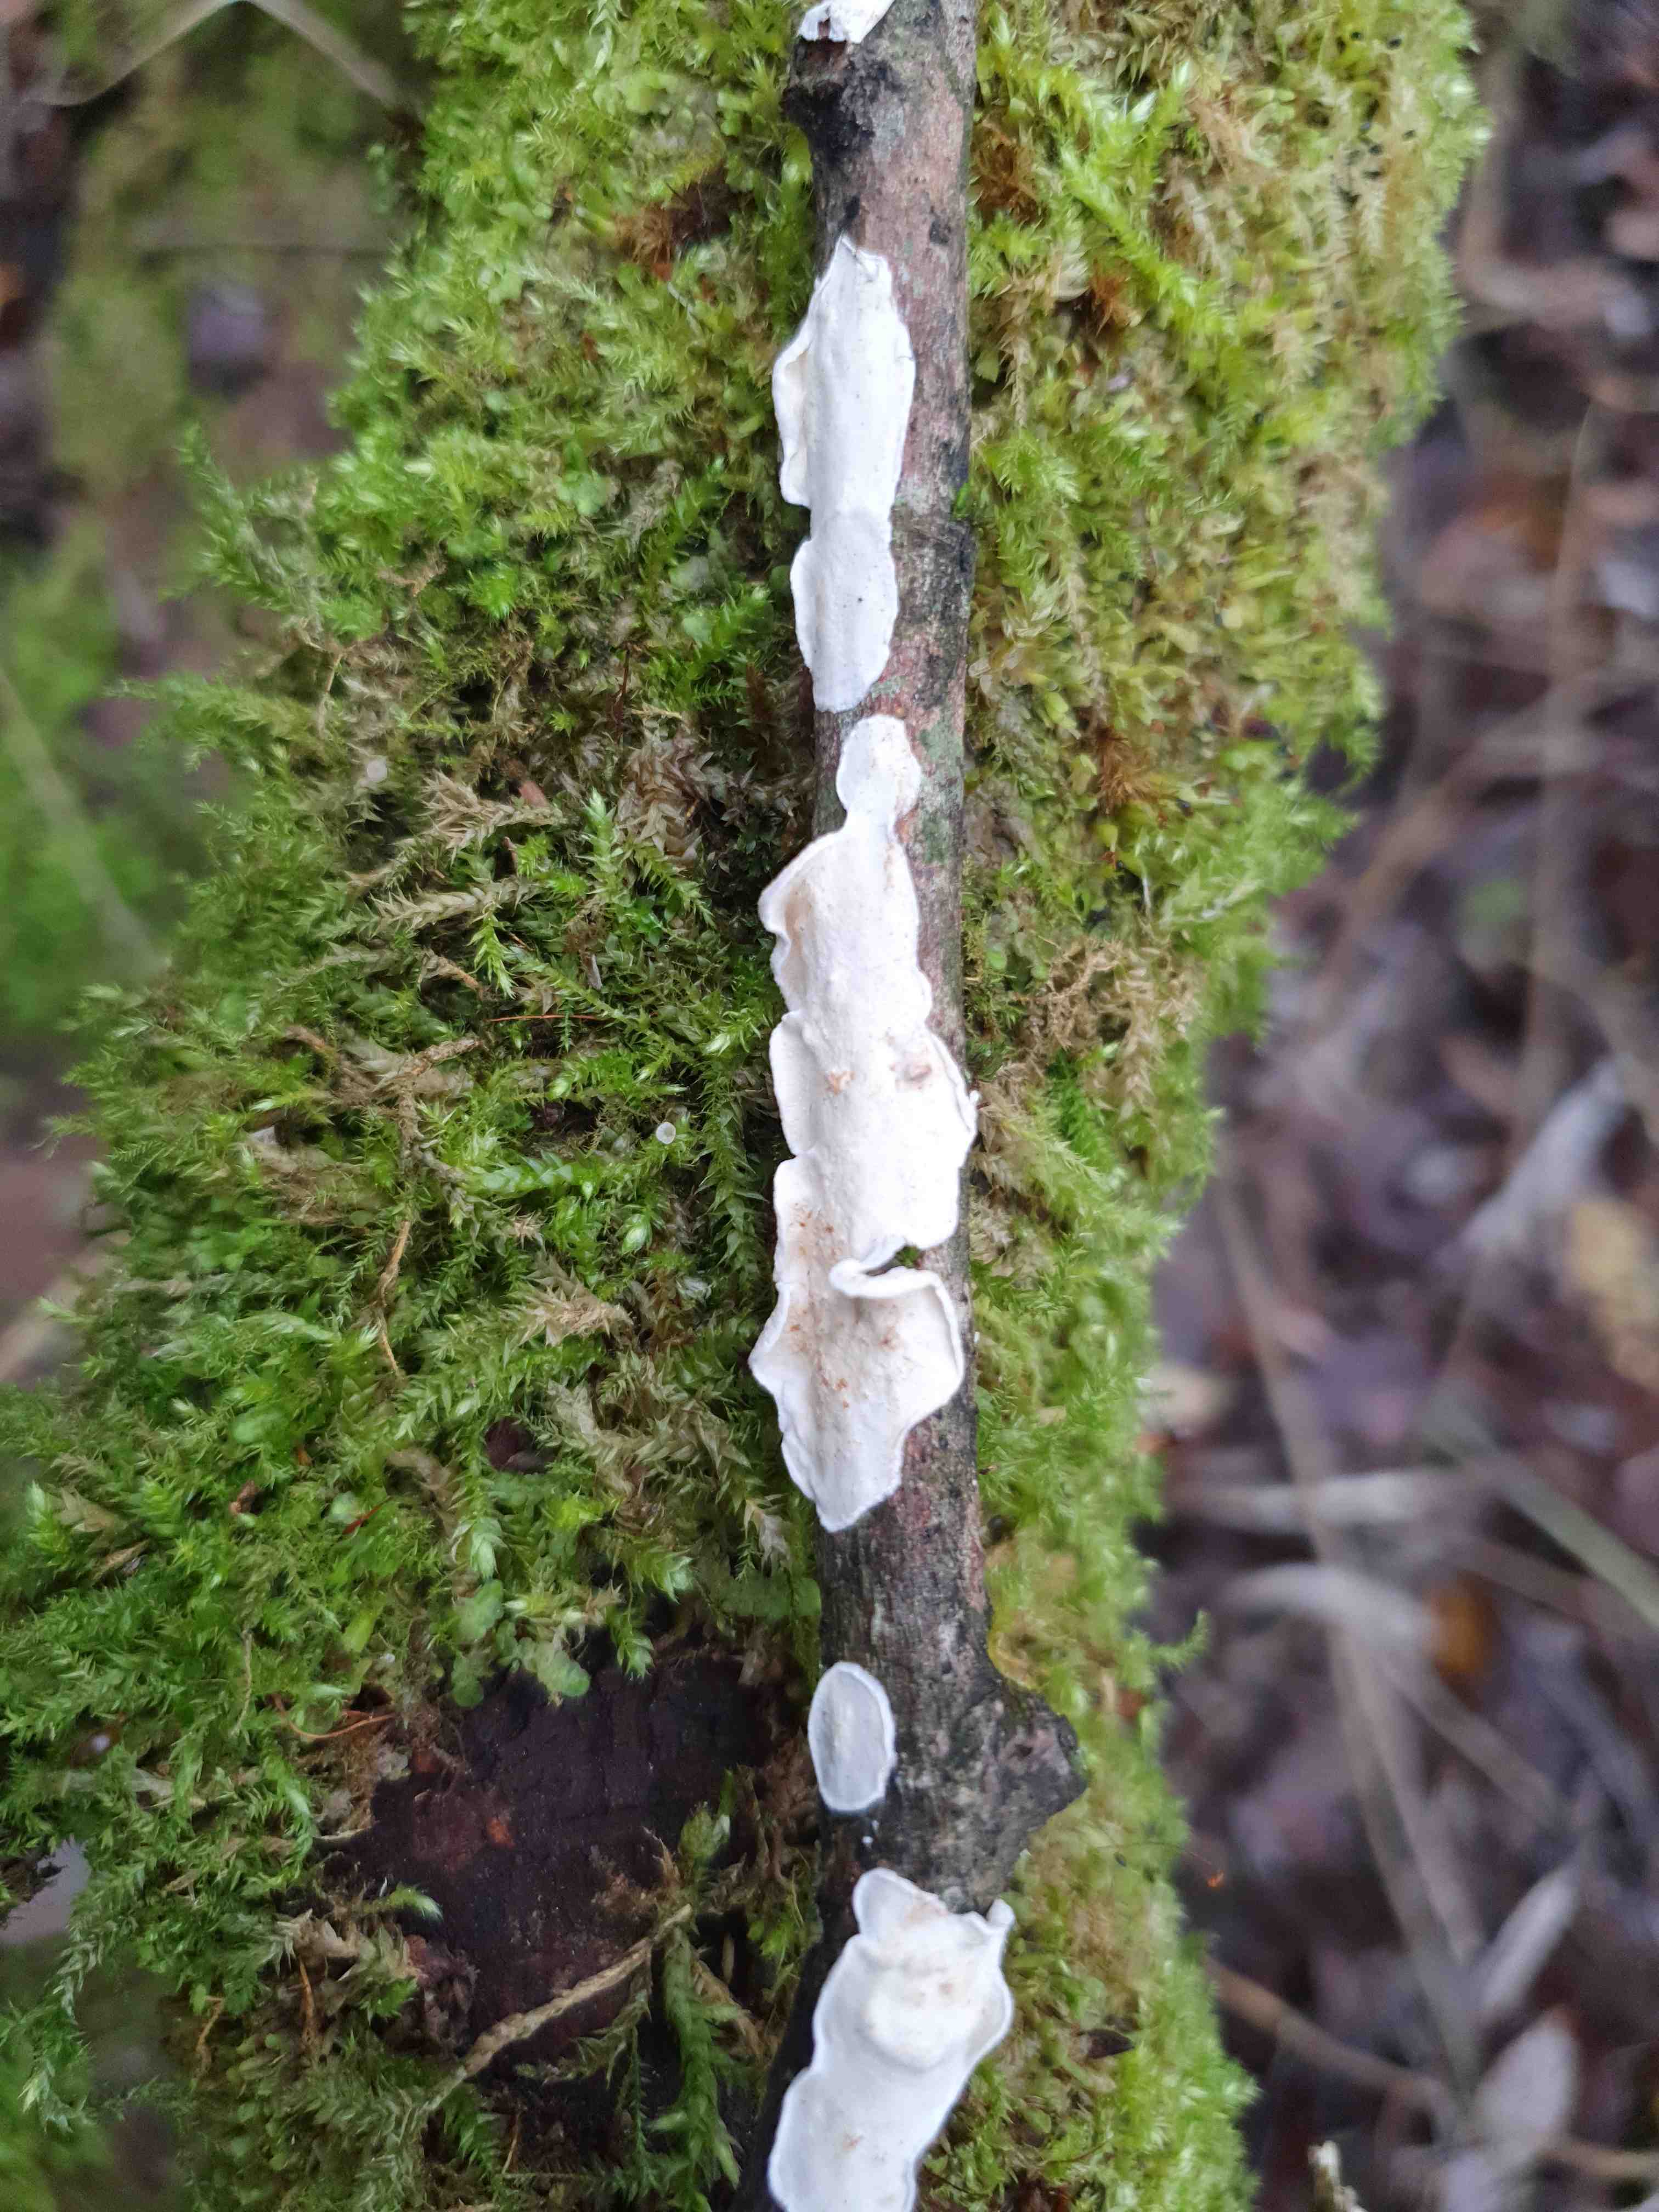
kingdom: Fungi
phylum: Basidiomycota
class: Agaricomycetes
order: Polyporales
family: Irpicaceae
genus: Byssomerulius
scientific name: Byssomerulius corium
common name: læder-åresvamp
